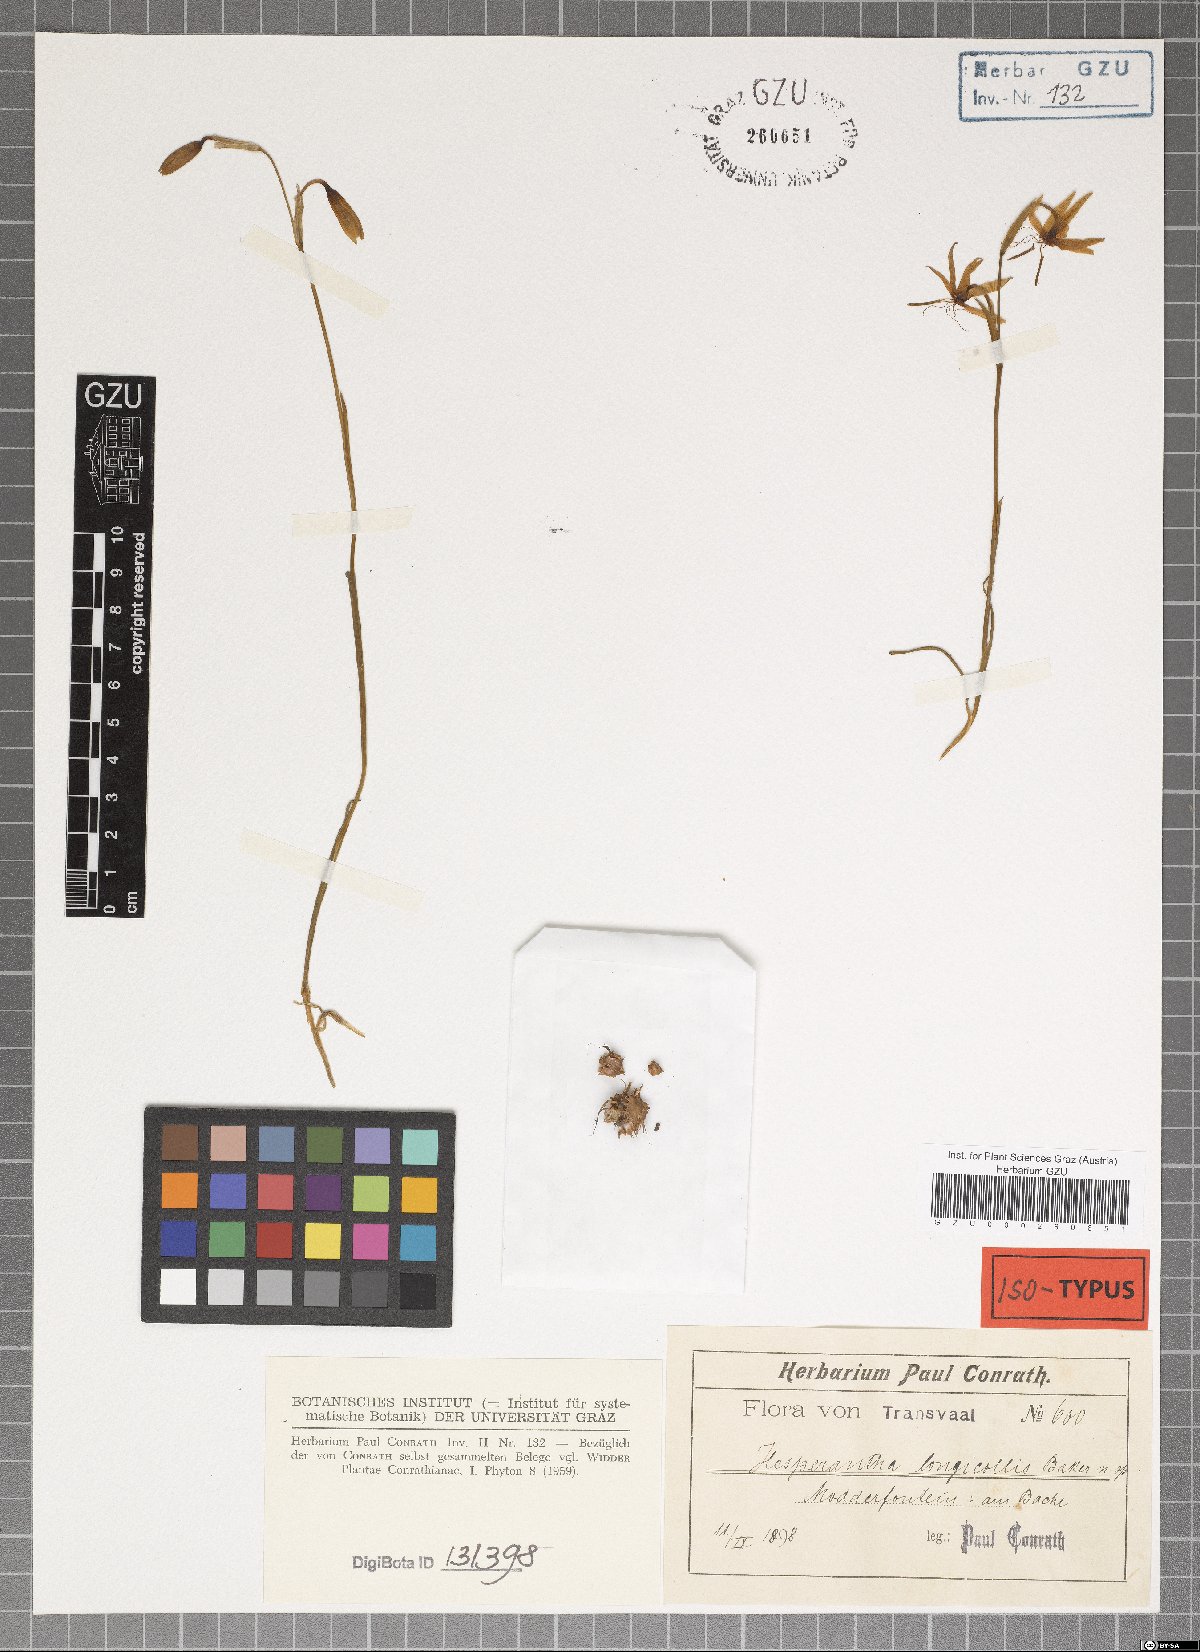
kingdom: Plantae
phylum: Tracheophyta
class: Liliopsida
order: Asparagales
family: Iridaceae
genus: Hesperantha
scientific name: Hesperantha longicollis
